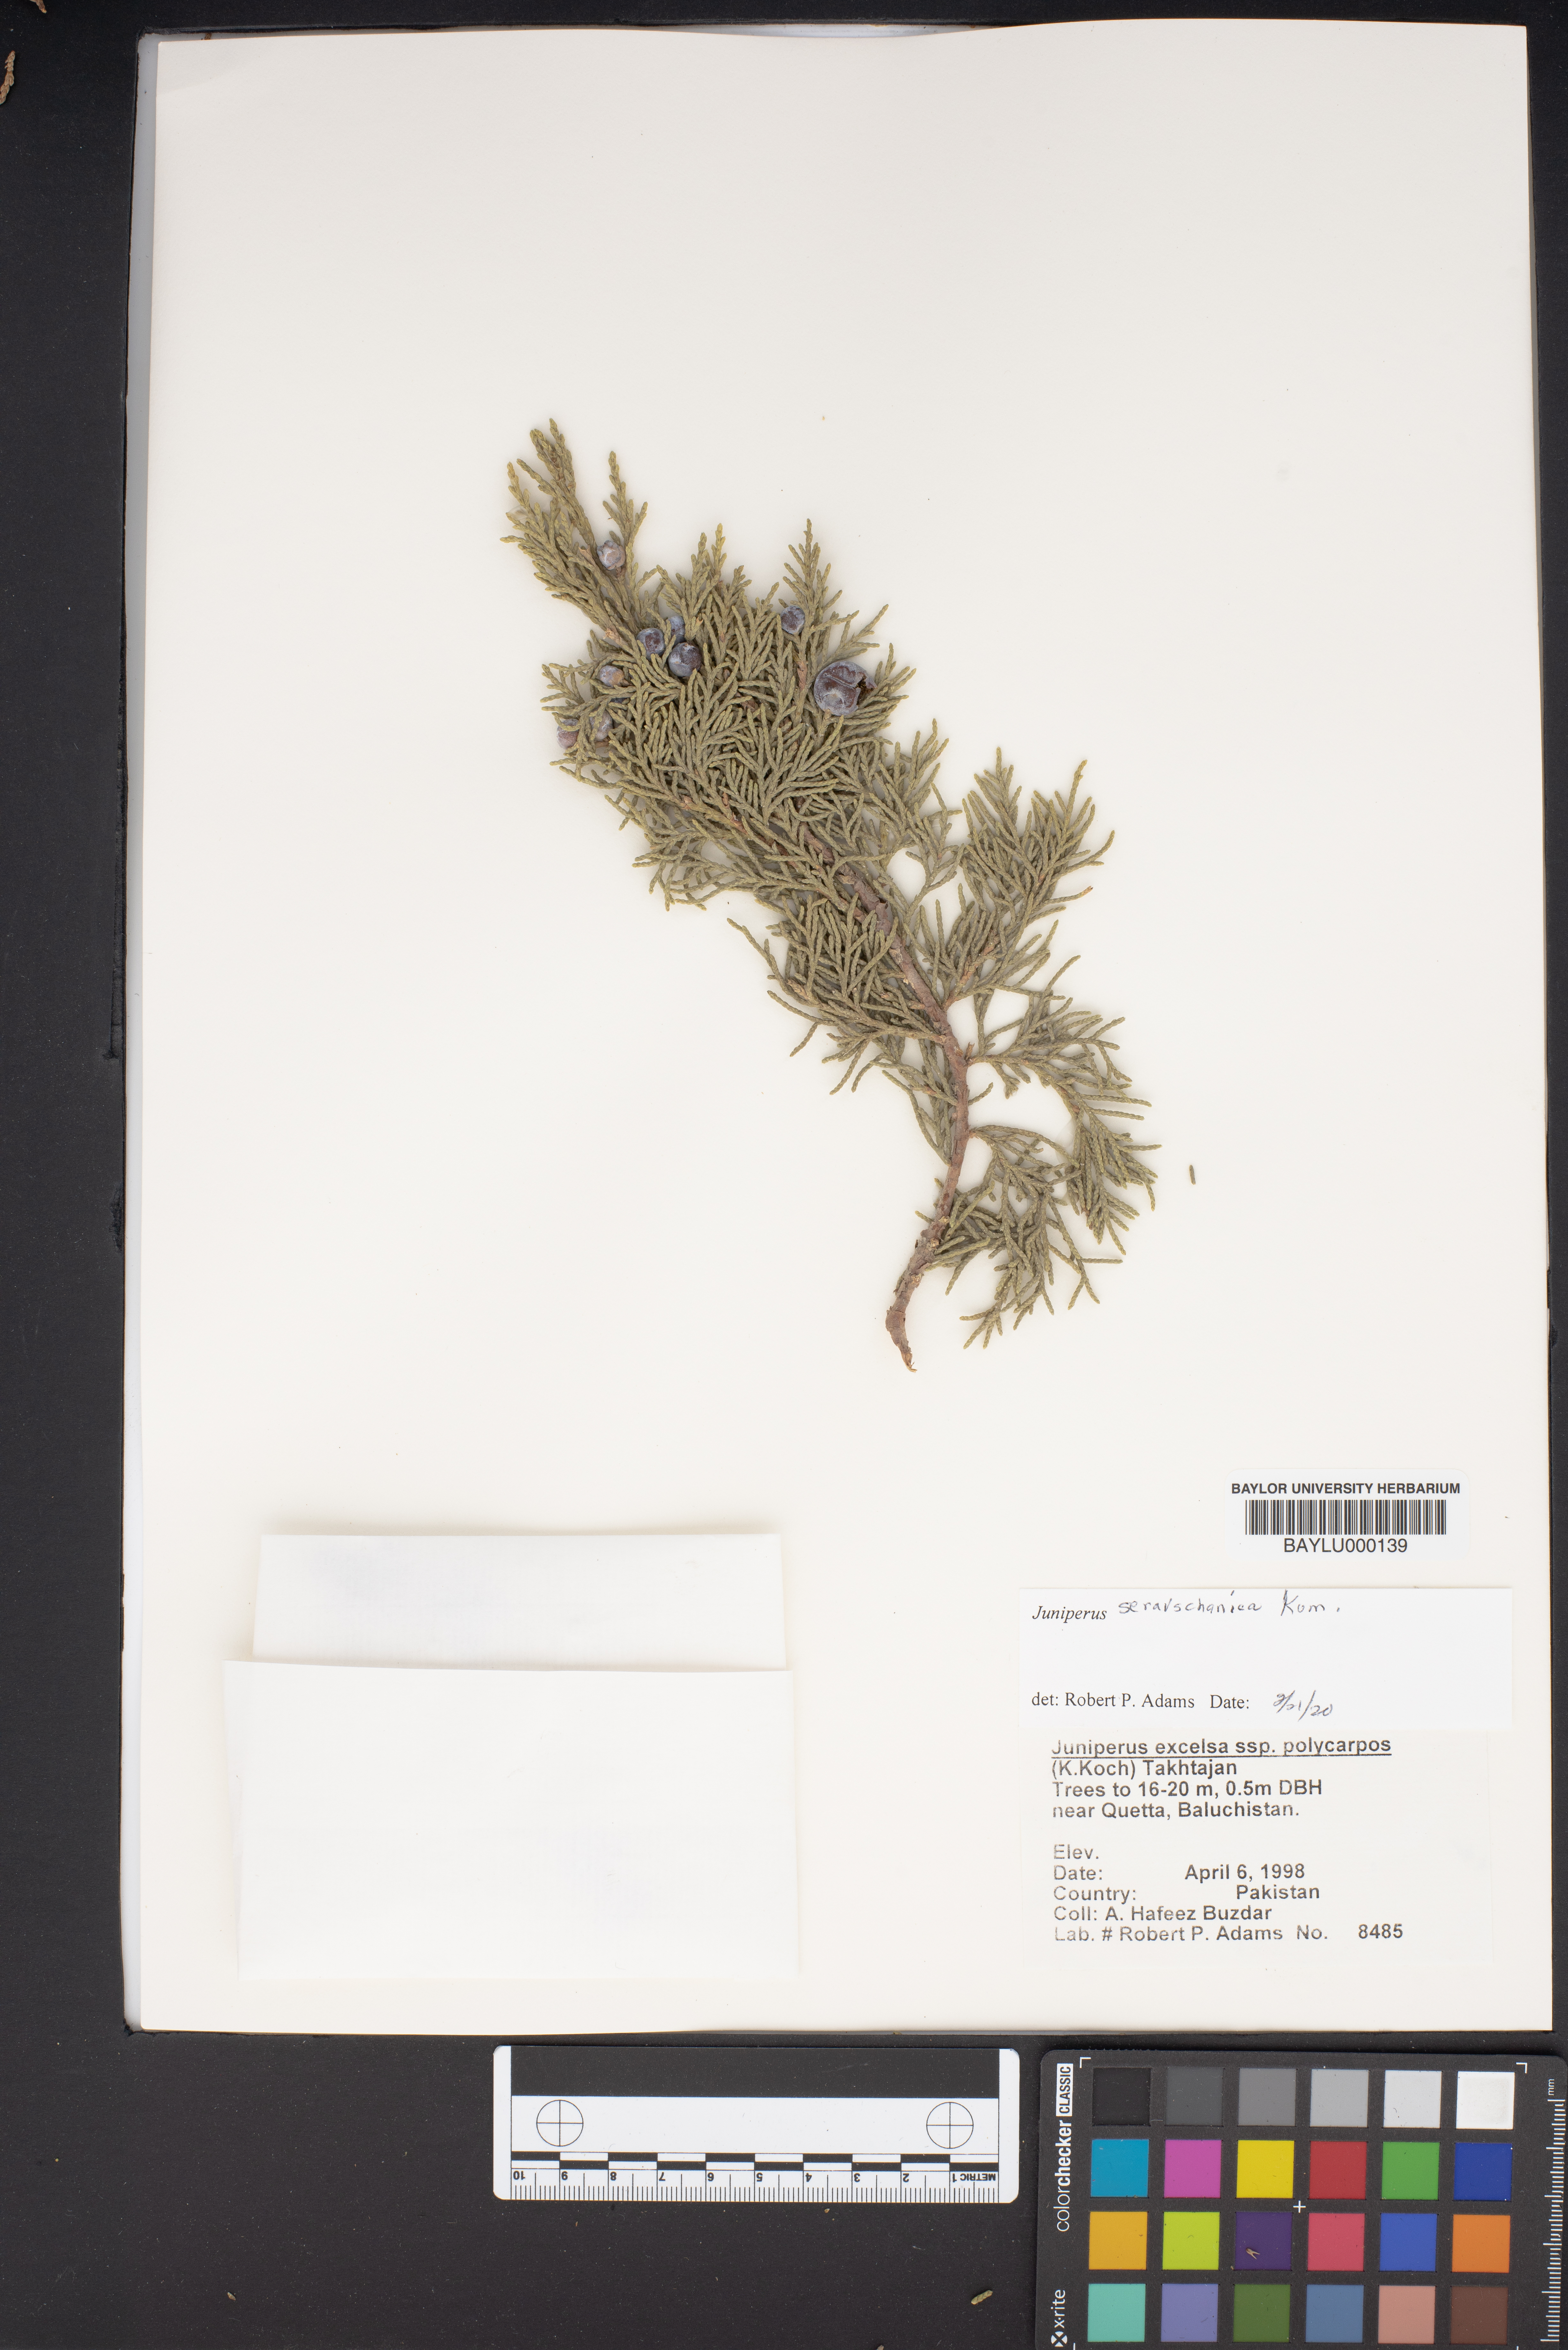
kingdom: Plantae
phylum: Tracheophyta
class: Pinopsida
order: Pinales
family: Cupressaceae
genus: Juniperus
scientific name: Juniperus excelsa
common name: Crimean juniper
